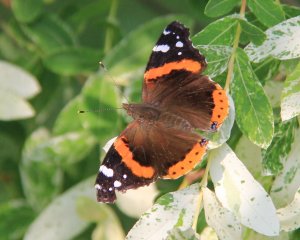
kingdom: Animalia
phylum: Arthropoda
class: Insecta
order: Lepidoptera
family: Nymphalidae
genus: Vanessa
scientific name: Vanessa atalanta
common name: Red Admiral
